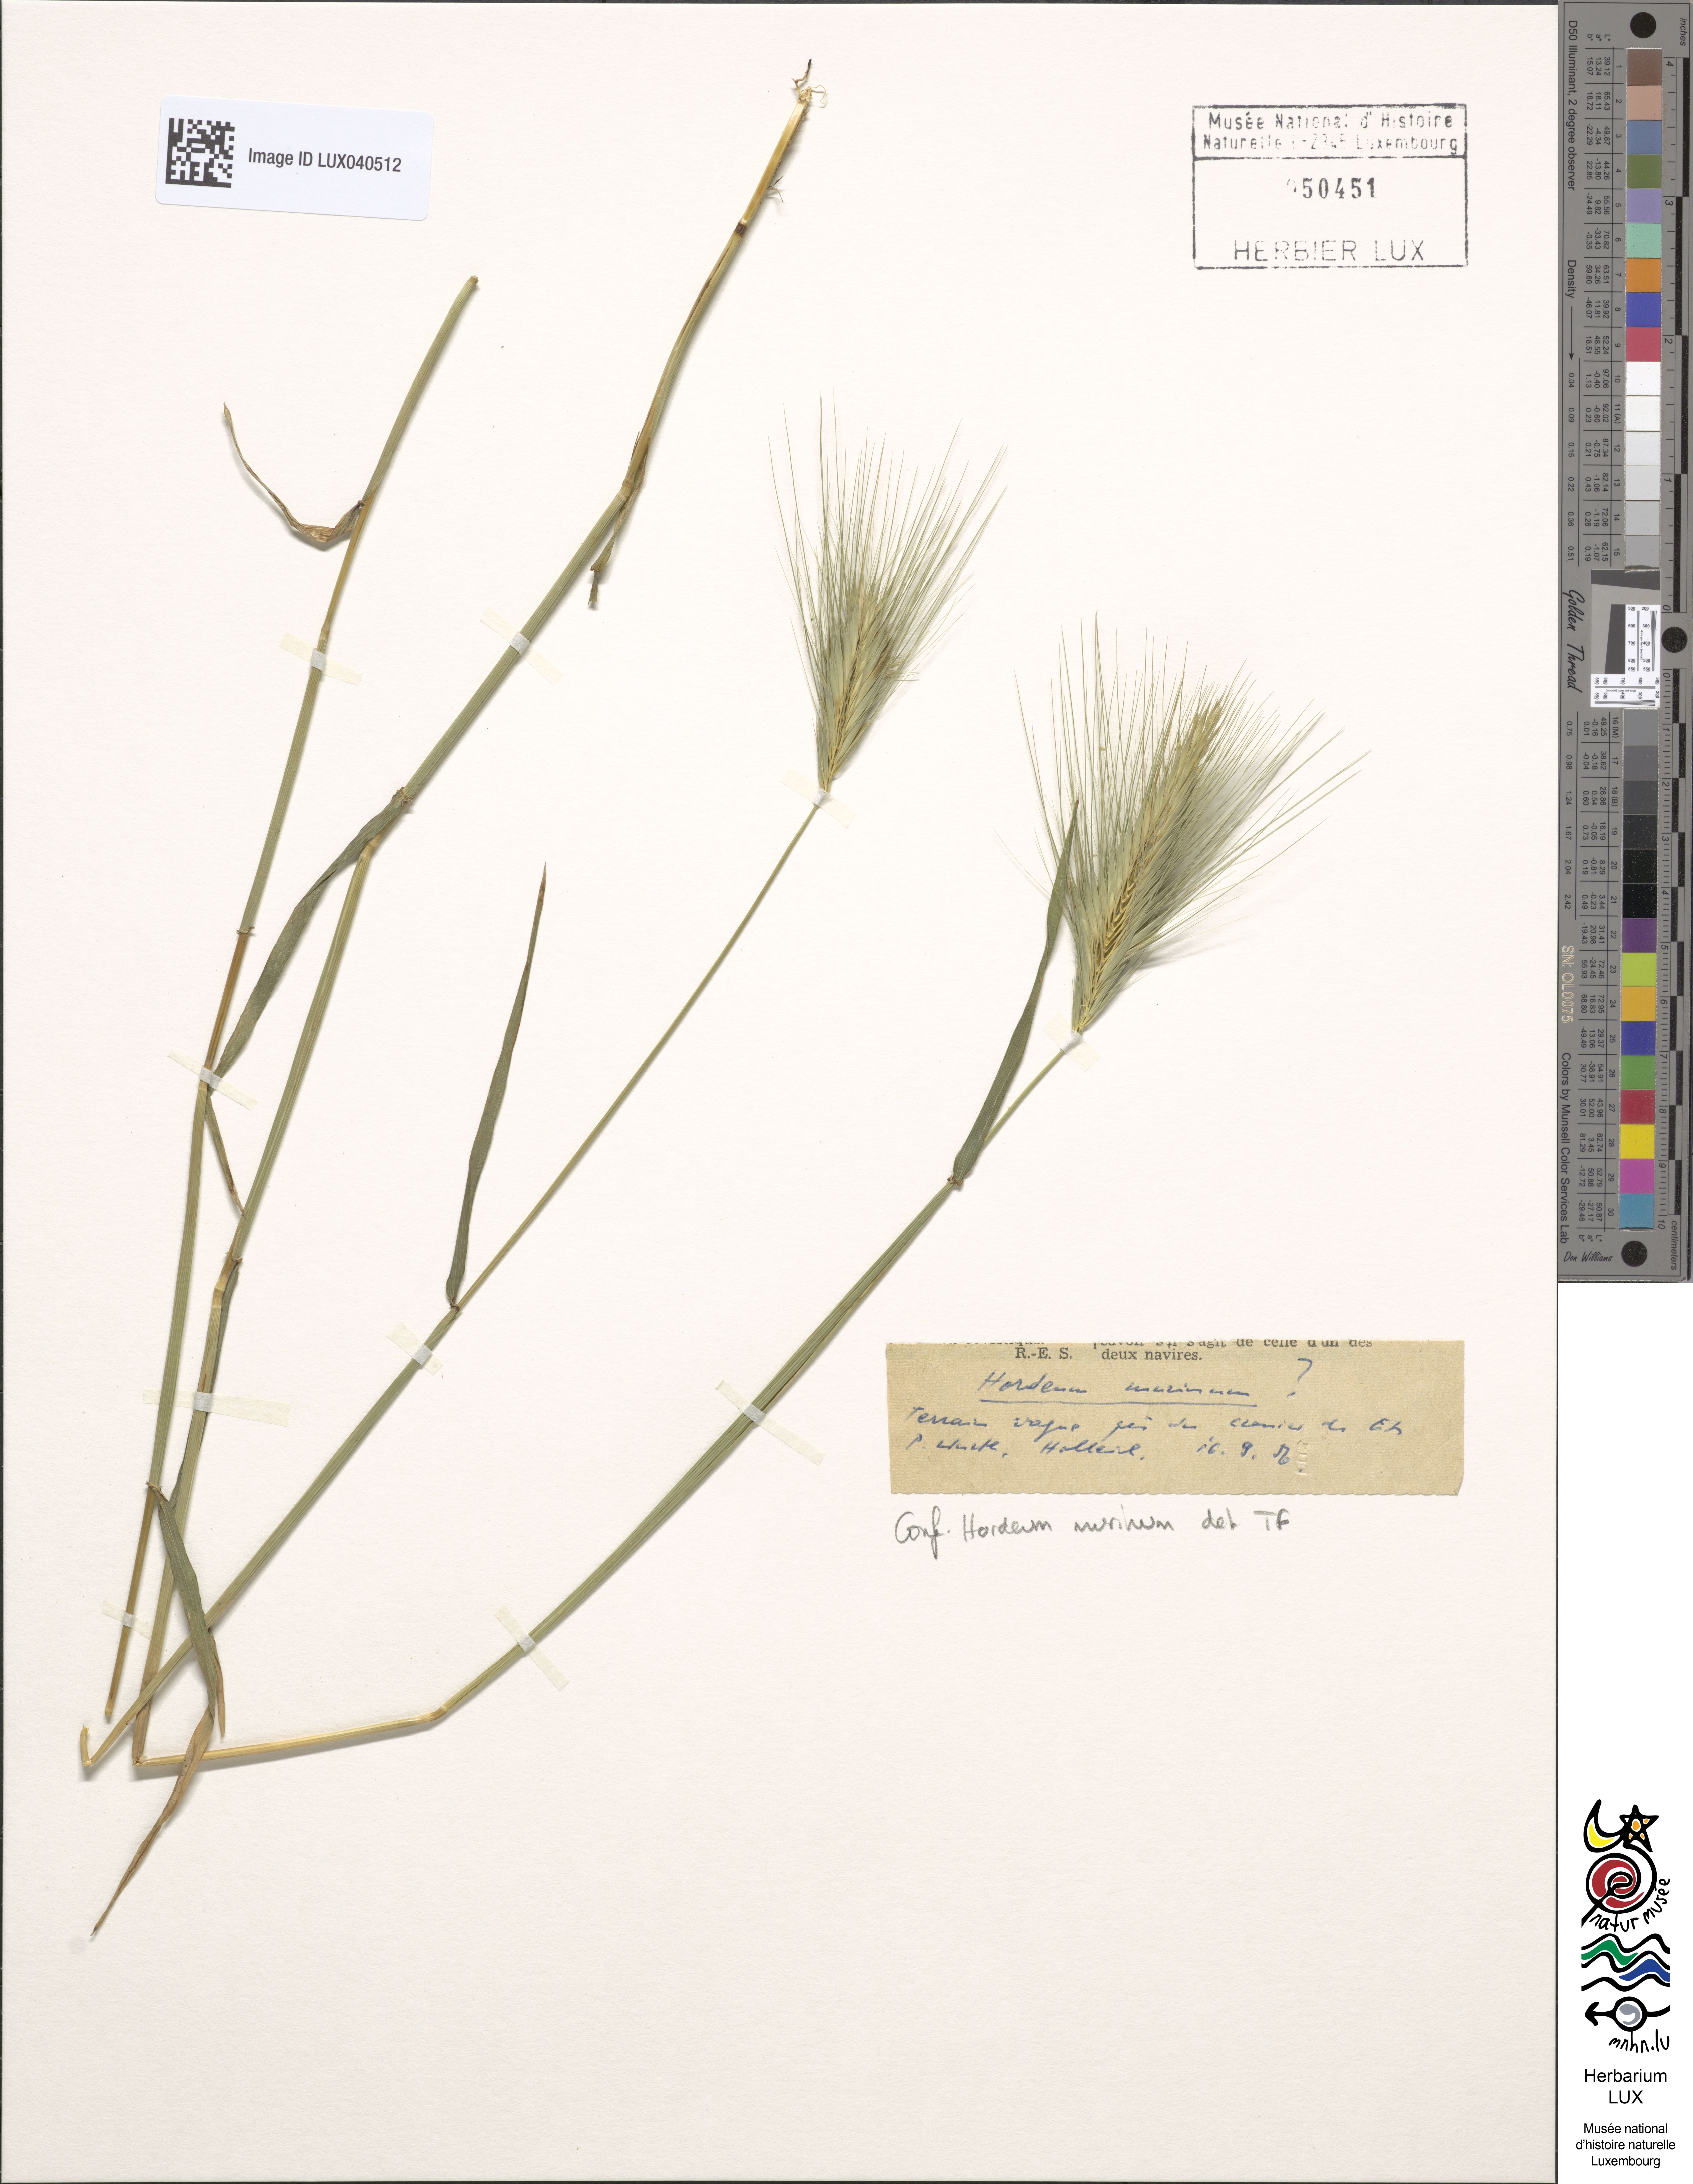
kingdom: Plantae
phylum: Tracheophyta
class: Liliopsida
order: Poales
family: Poaceae
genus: Hordeum
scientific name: Hordeum murinum
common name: Wall barley
